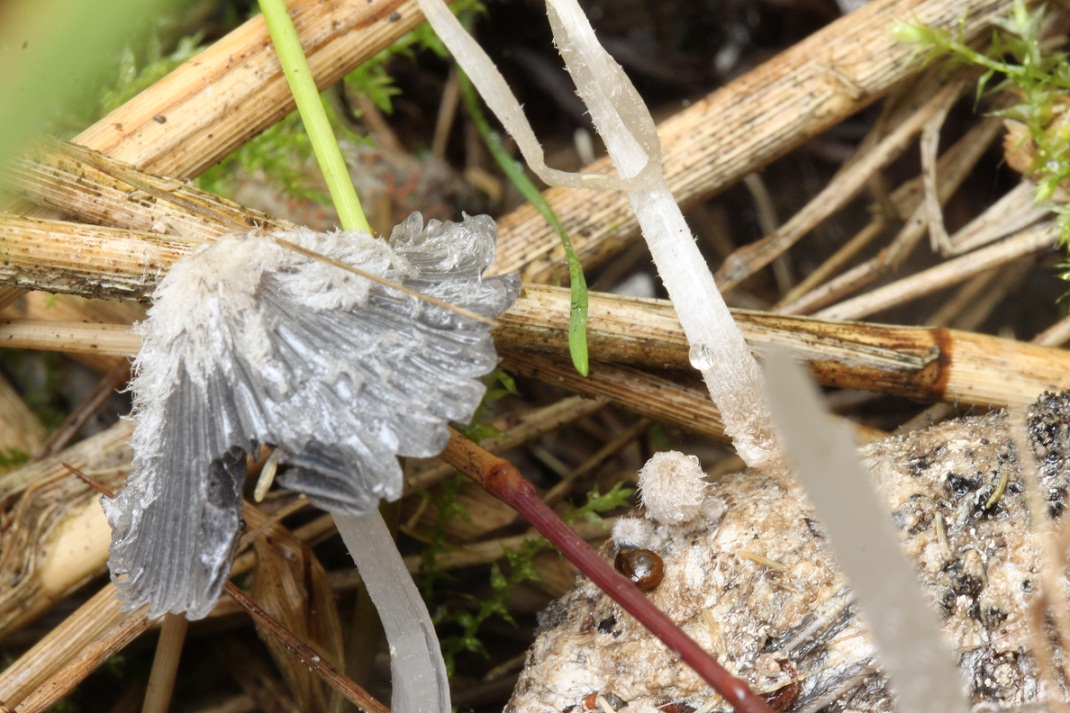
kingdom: Fungi
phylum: Basidiomycota
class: Agaricomycetes
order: Agaricales
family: Psathyrellaceae
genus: Coprinopsis
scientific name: Coprinopsis radiata
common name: lille gødnings-blækhat
